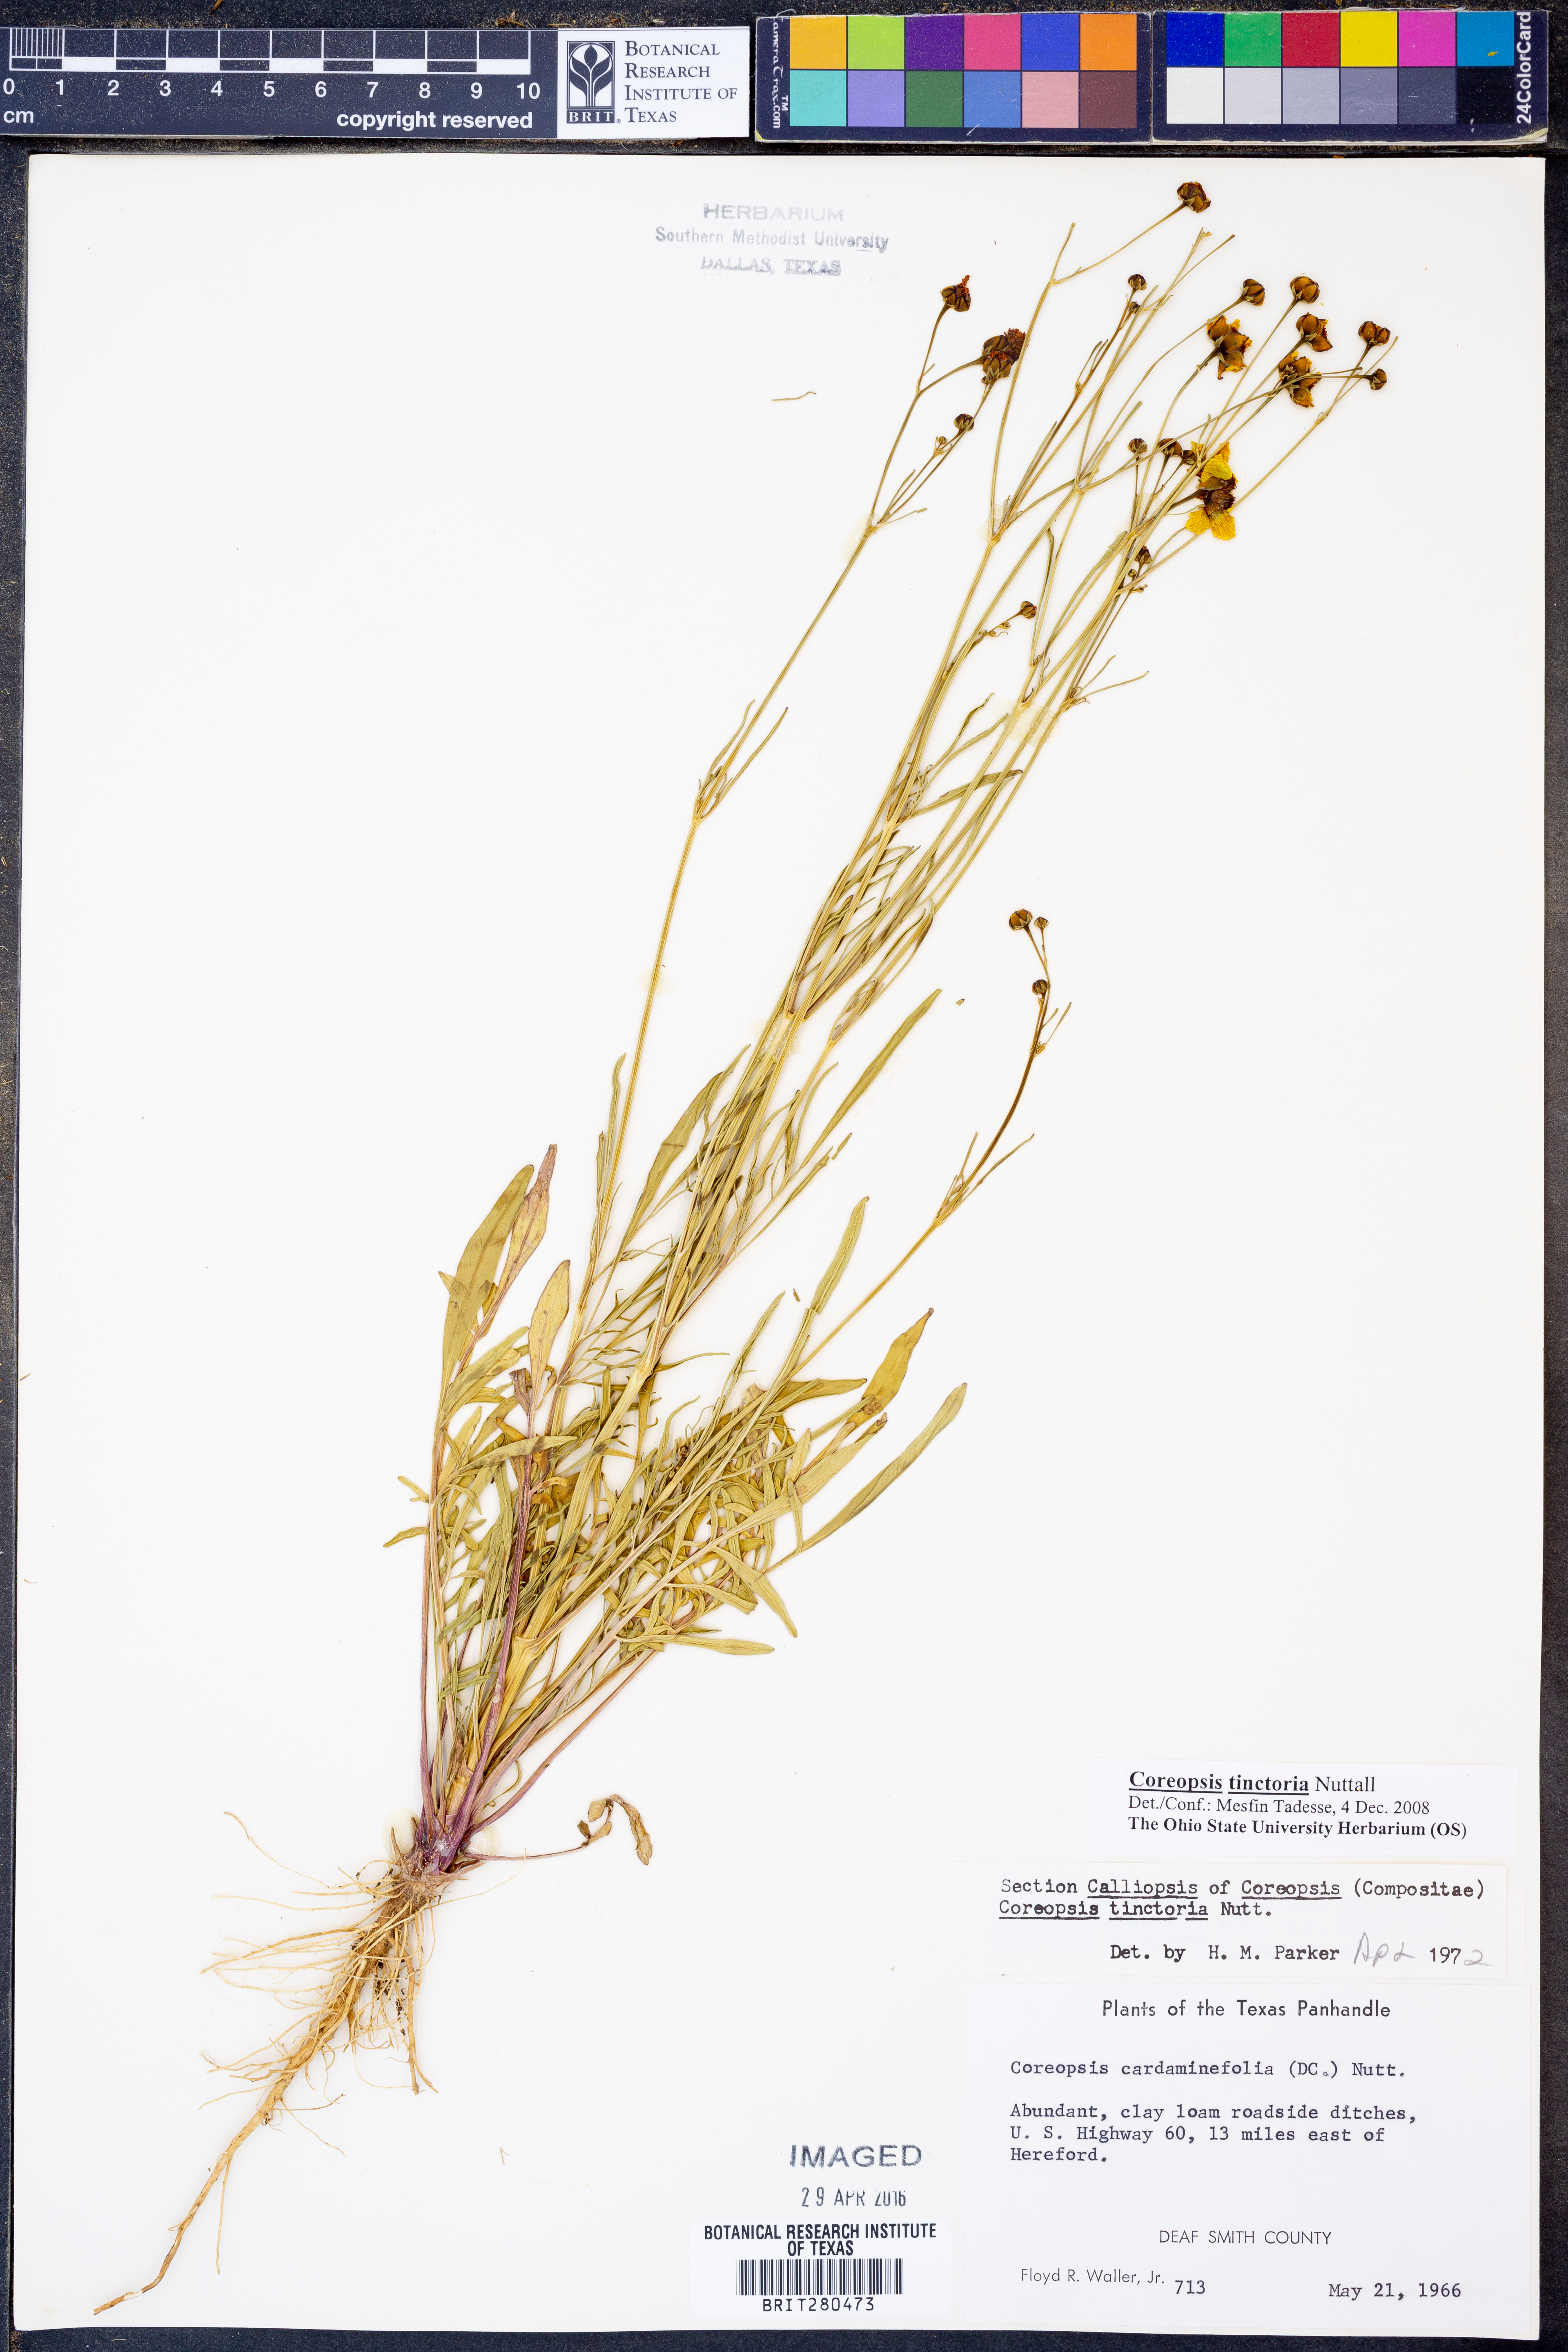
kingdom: Plantae
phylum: Tracheophyta
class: Magnoliopsida
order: Asterales
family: Asteraceae
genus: Coreopsis
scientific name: Coreopsis tinctoria
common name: Garden tickseed
